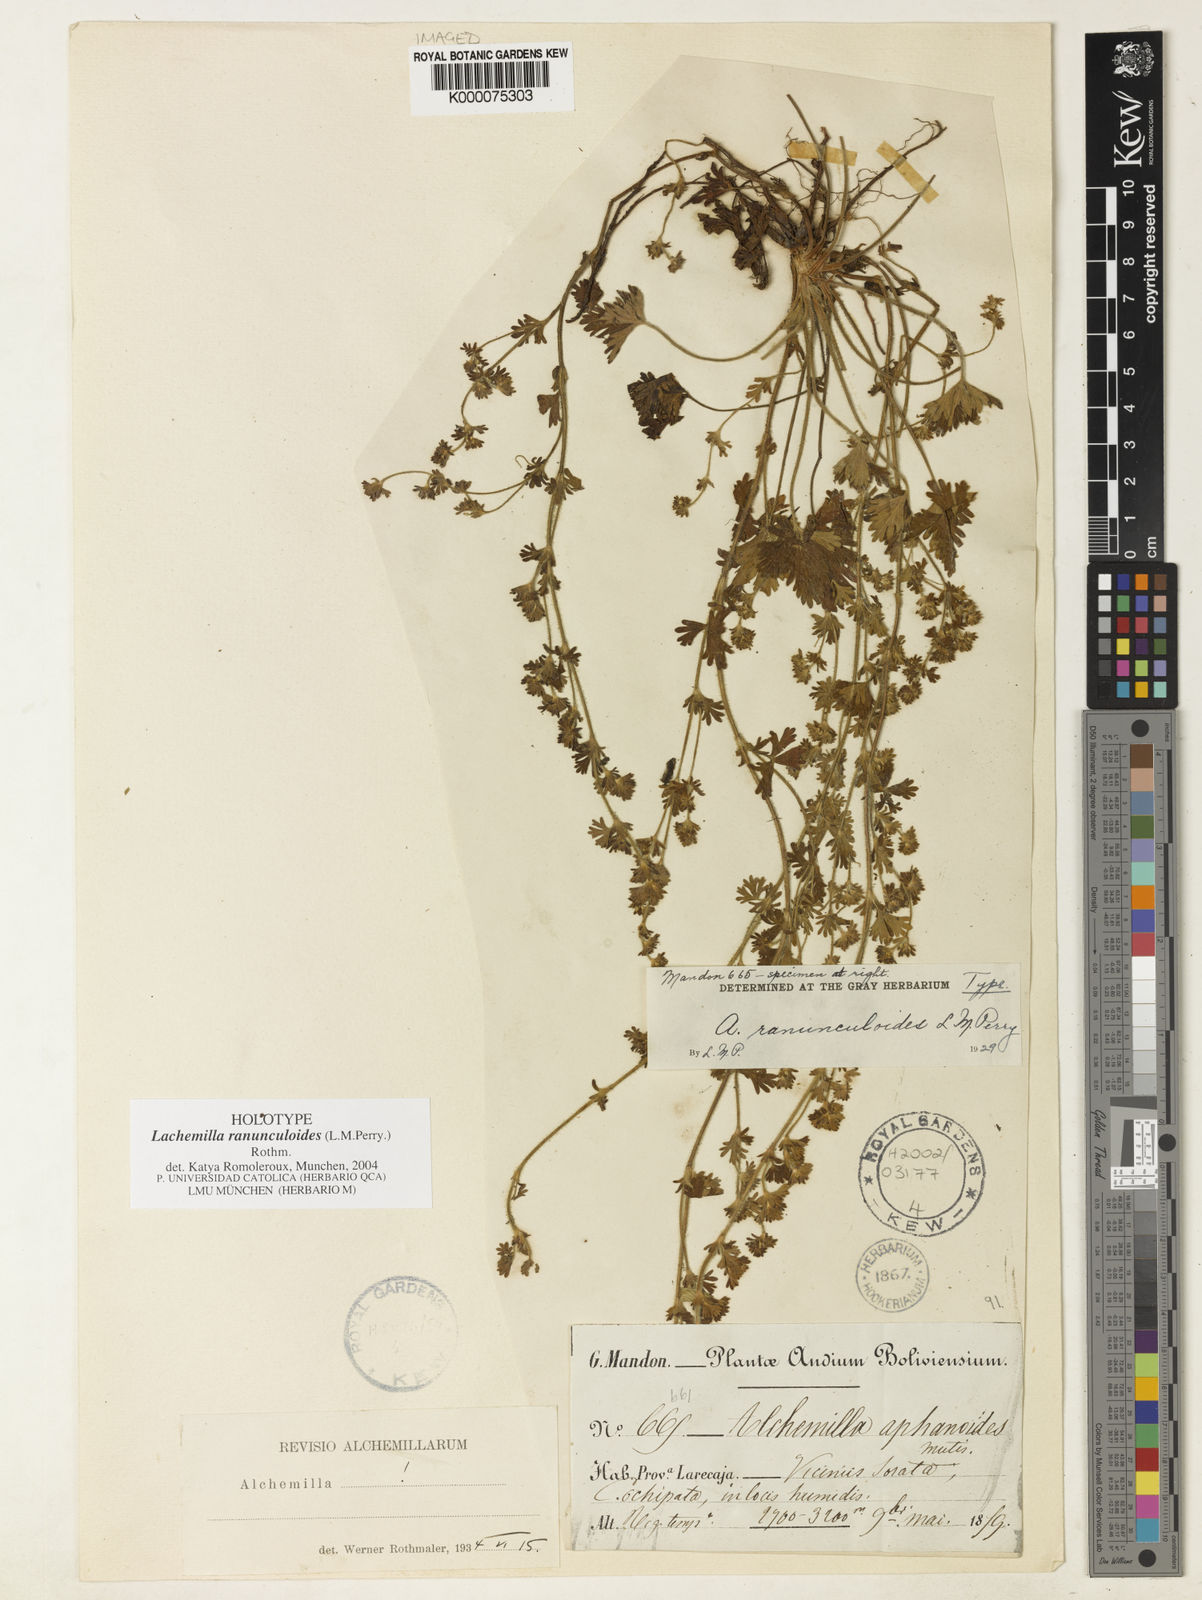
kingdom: Plantae
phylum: Tracheophyta
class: Magnoliopsida
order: Rosales
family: Rosaceae
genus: Lachemilla
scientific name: Lachemilla ranunculoides
